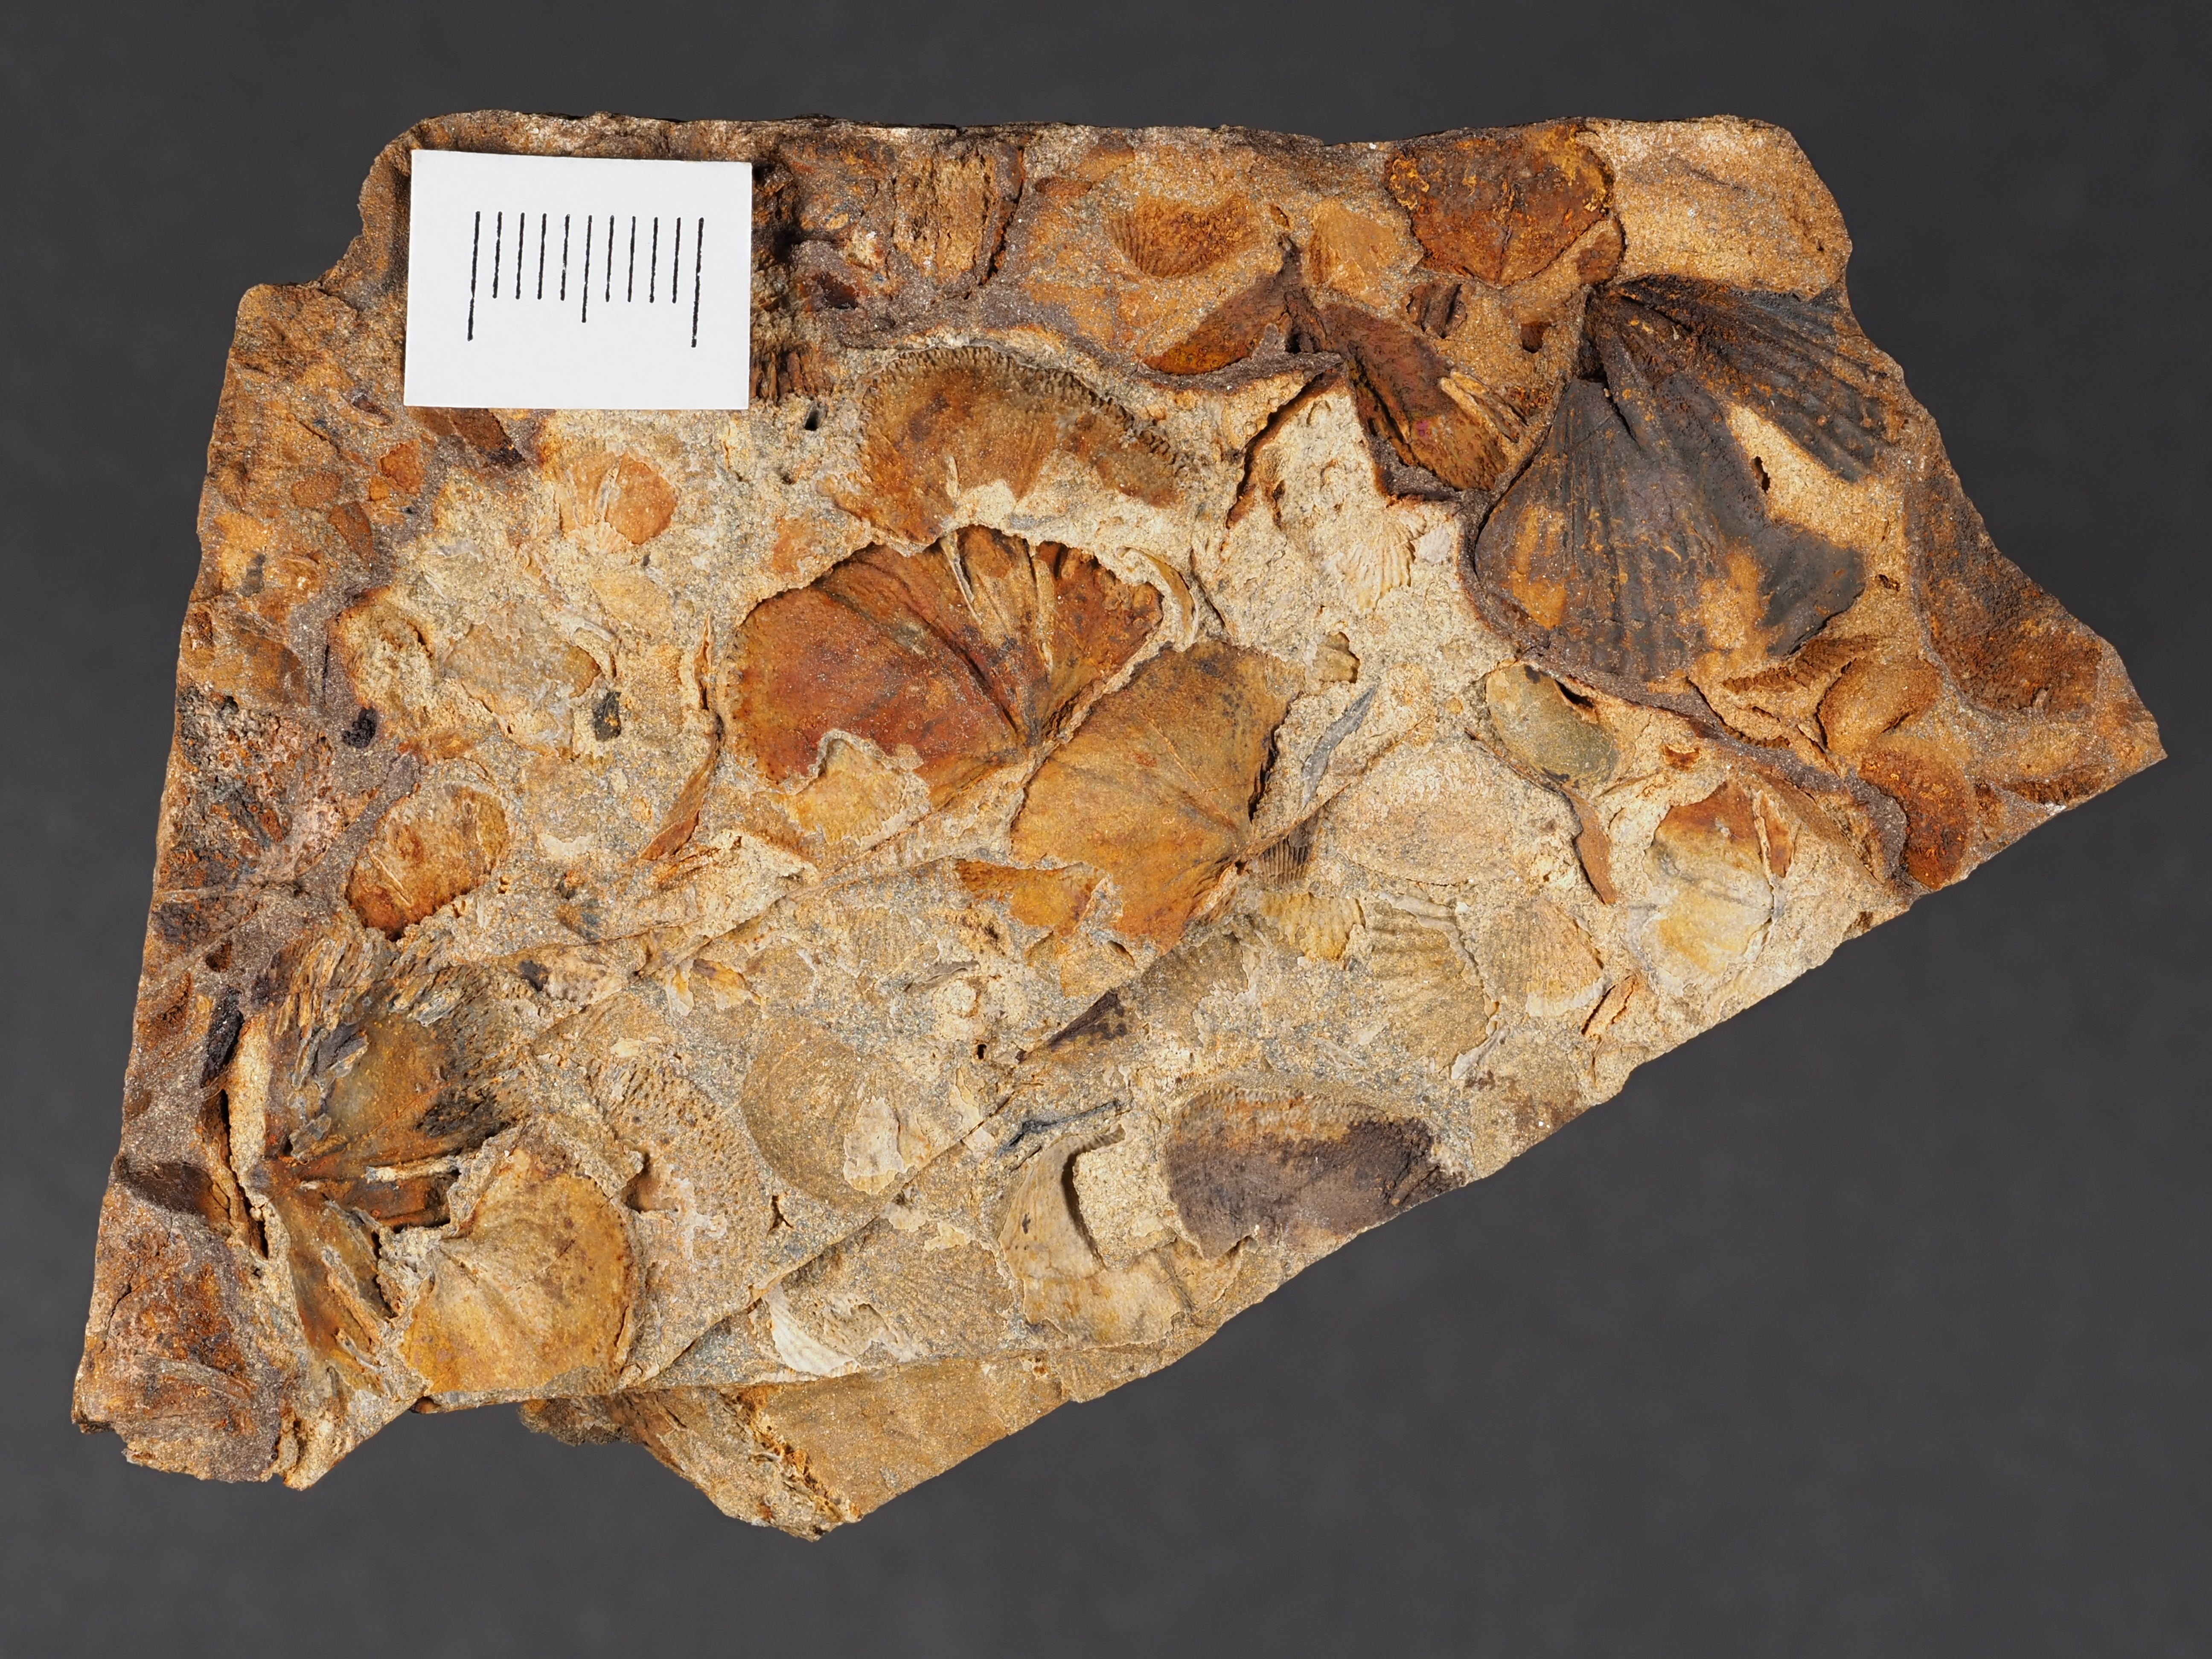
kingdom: Animalia
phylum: Brachiopoda
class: Rhynchonellata
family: Spinocyrtiidae
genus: Subcuspidella
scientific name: Subcuspidella
